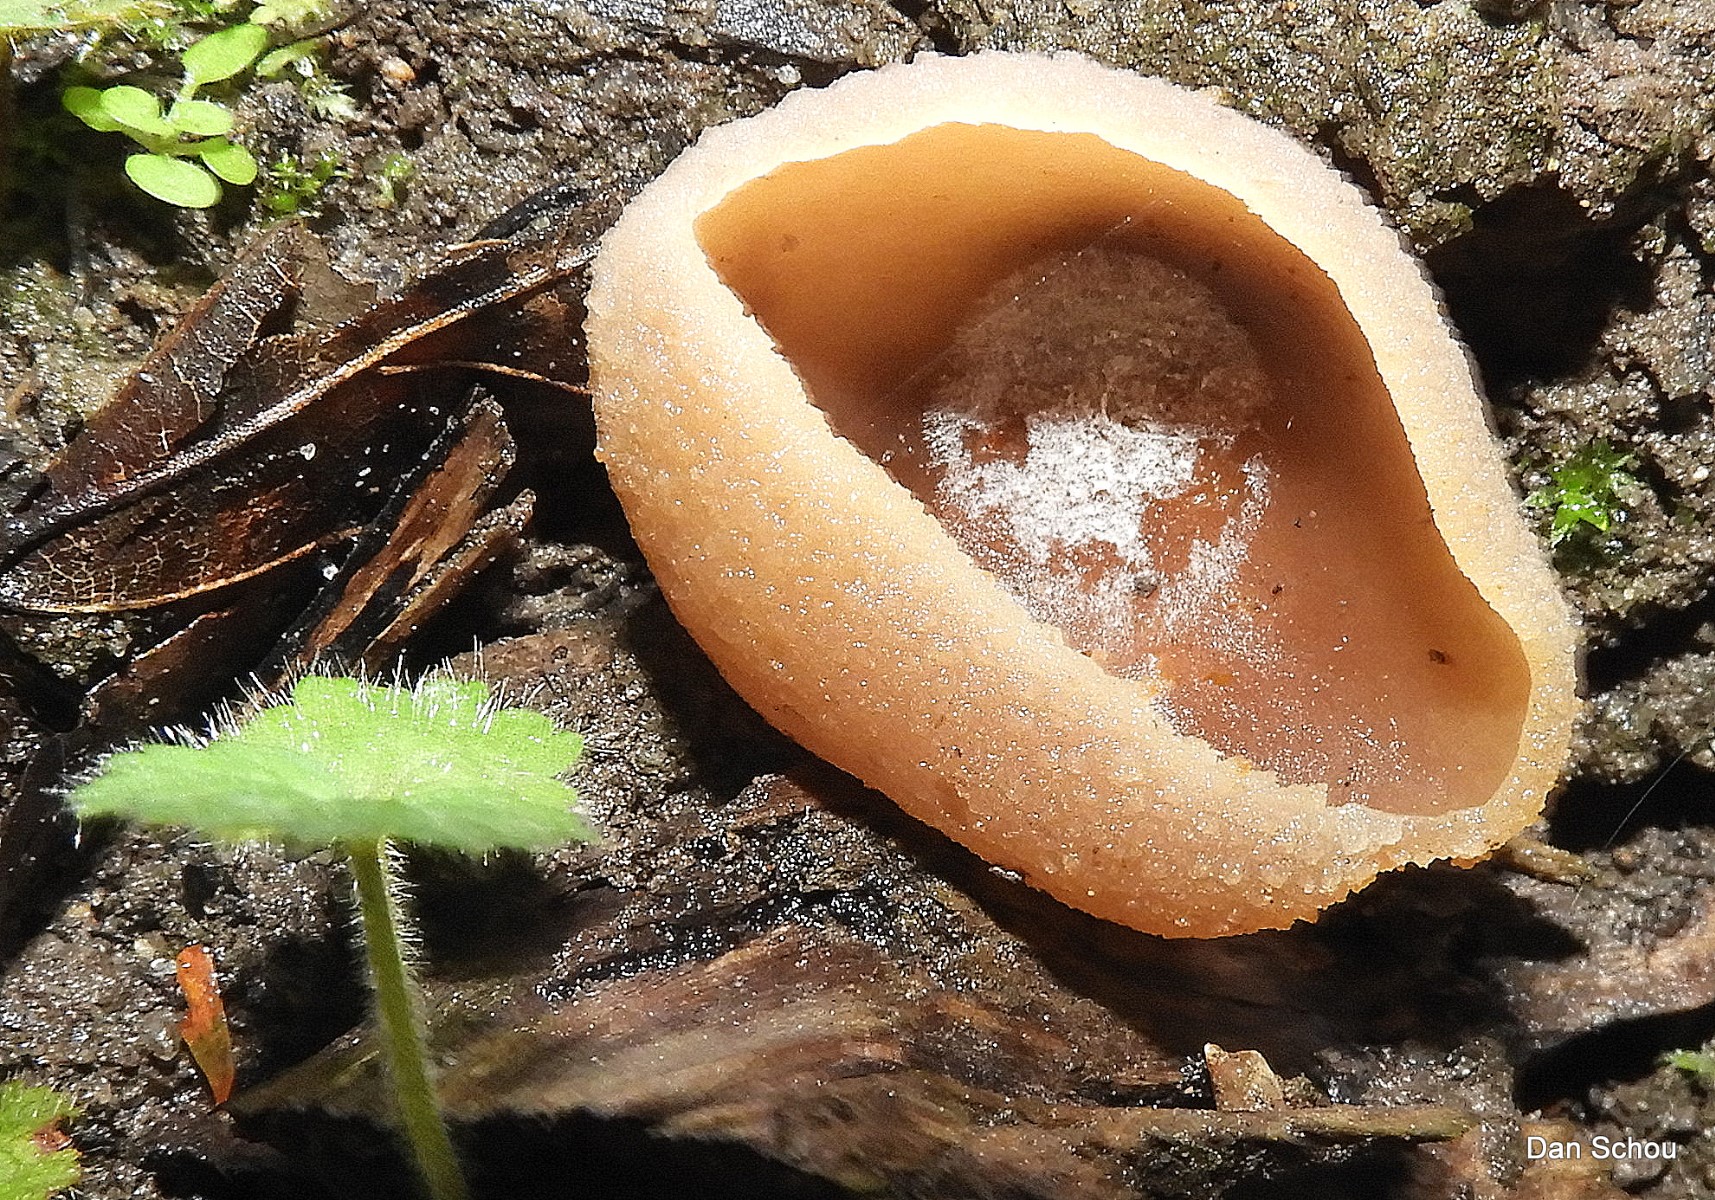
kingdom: Fungi
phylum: Ascomycota
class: Pezizomycetes
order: Pezizales
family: Pezizaceae
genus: Peziza
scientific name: Peziza
